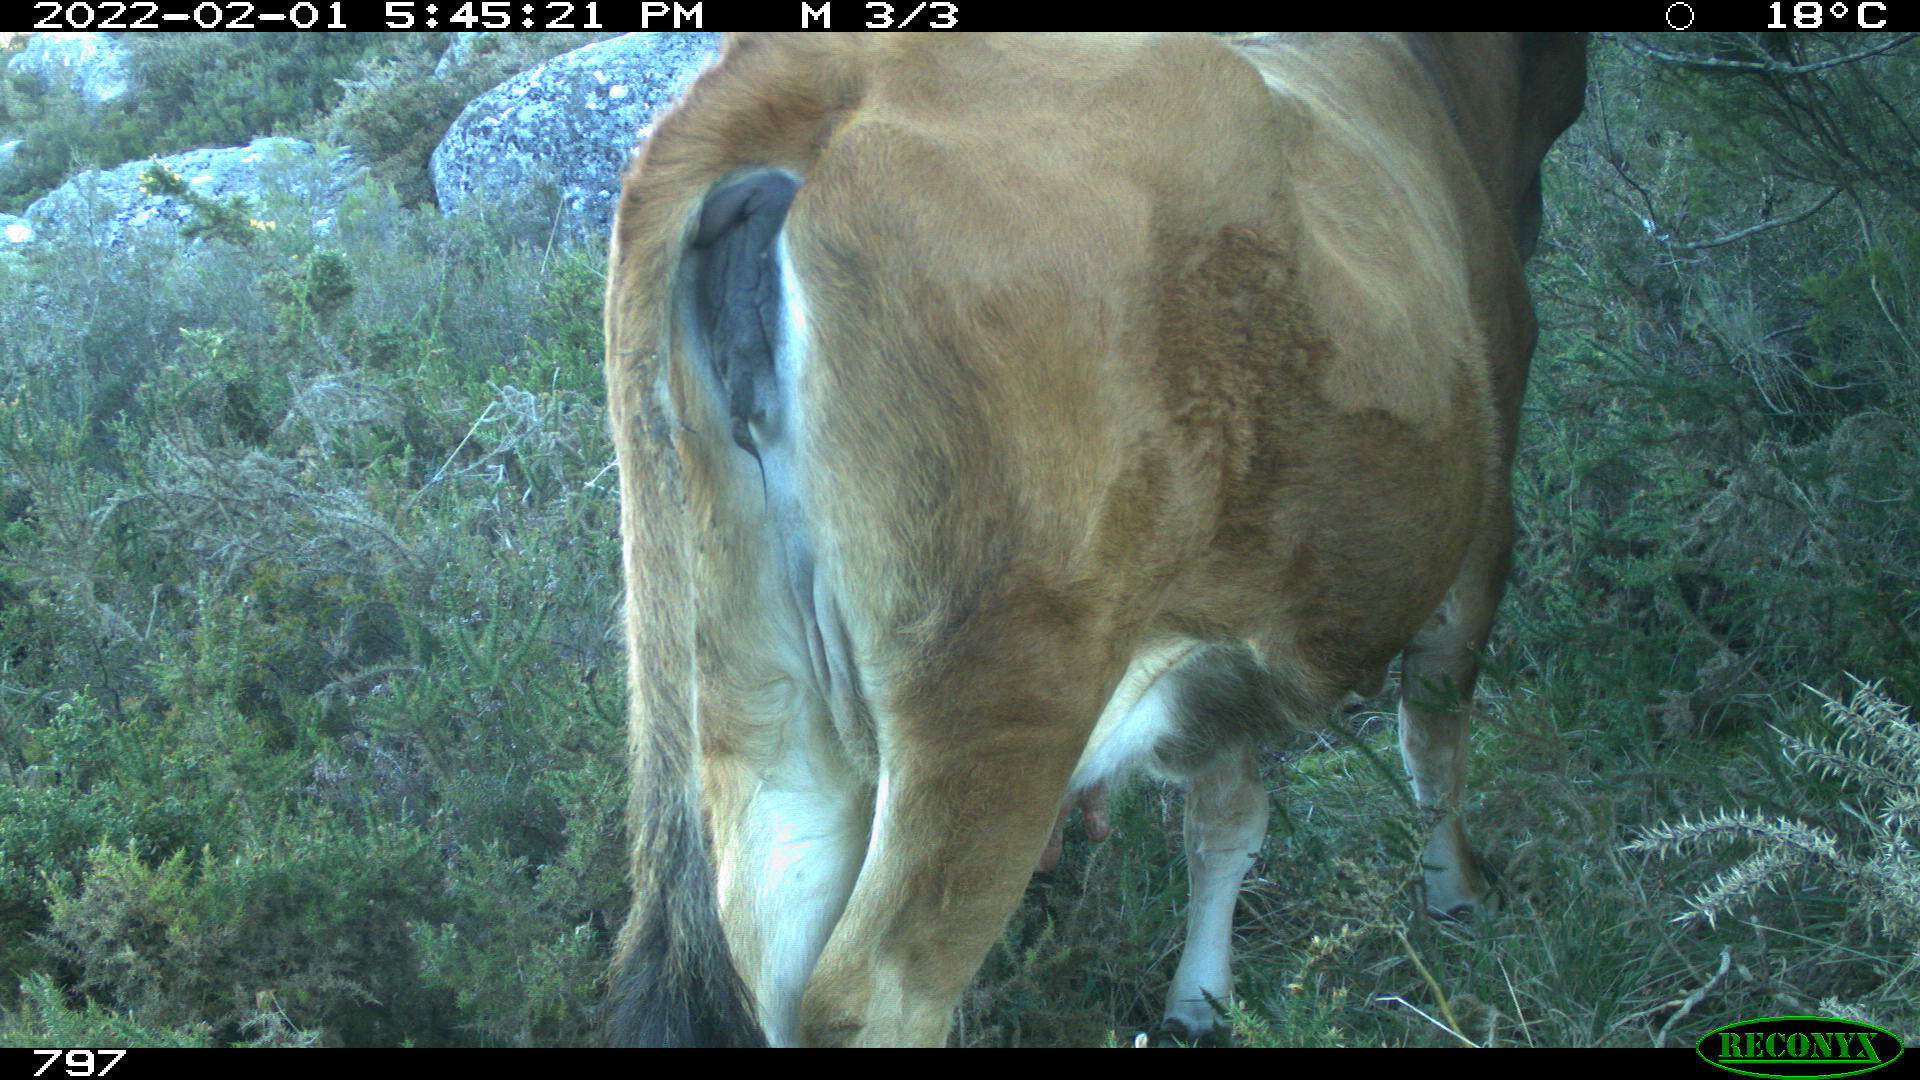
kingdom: Animalia
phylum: Chordata
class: Mammalia
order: Artiodactyla
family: Bovidae
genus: Bos
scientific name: Bos taurus
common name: Domesticated cattle
